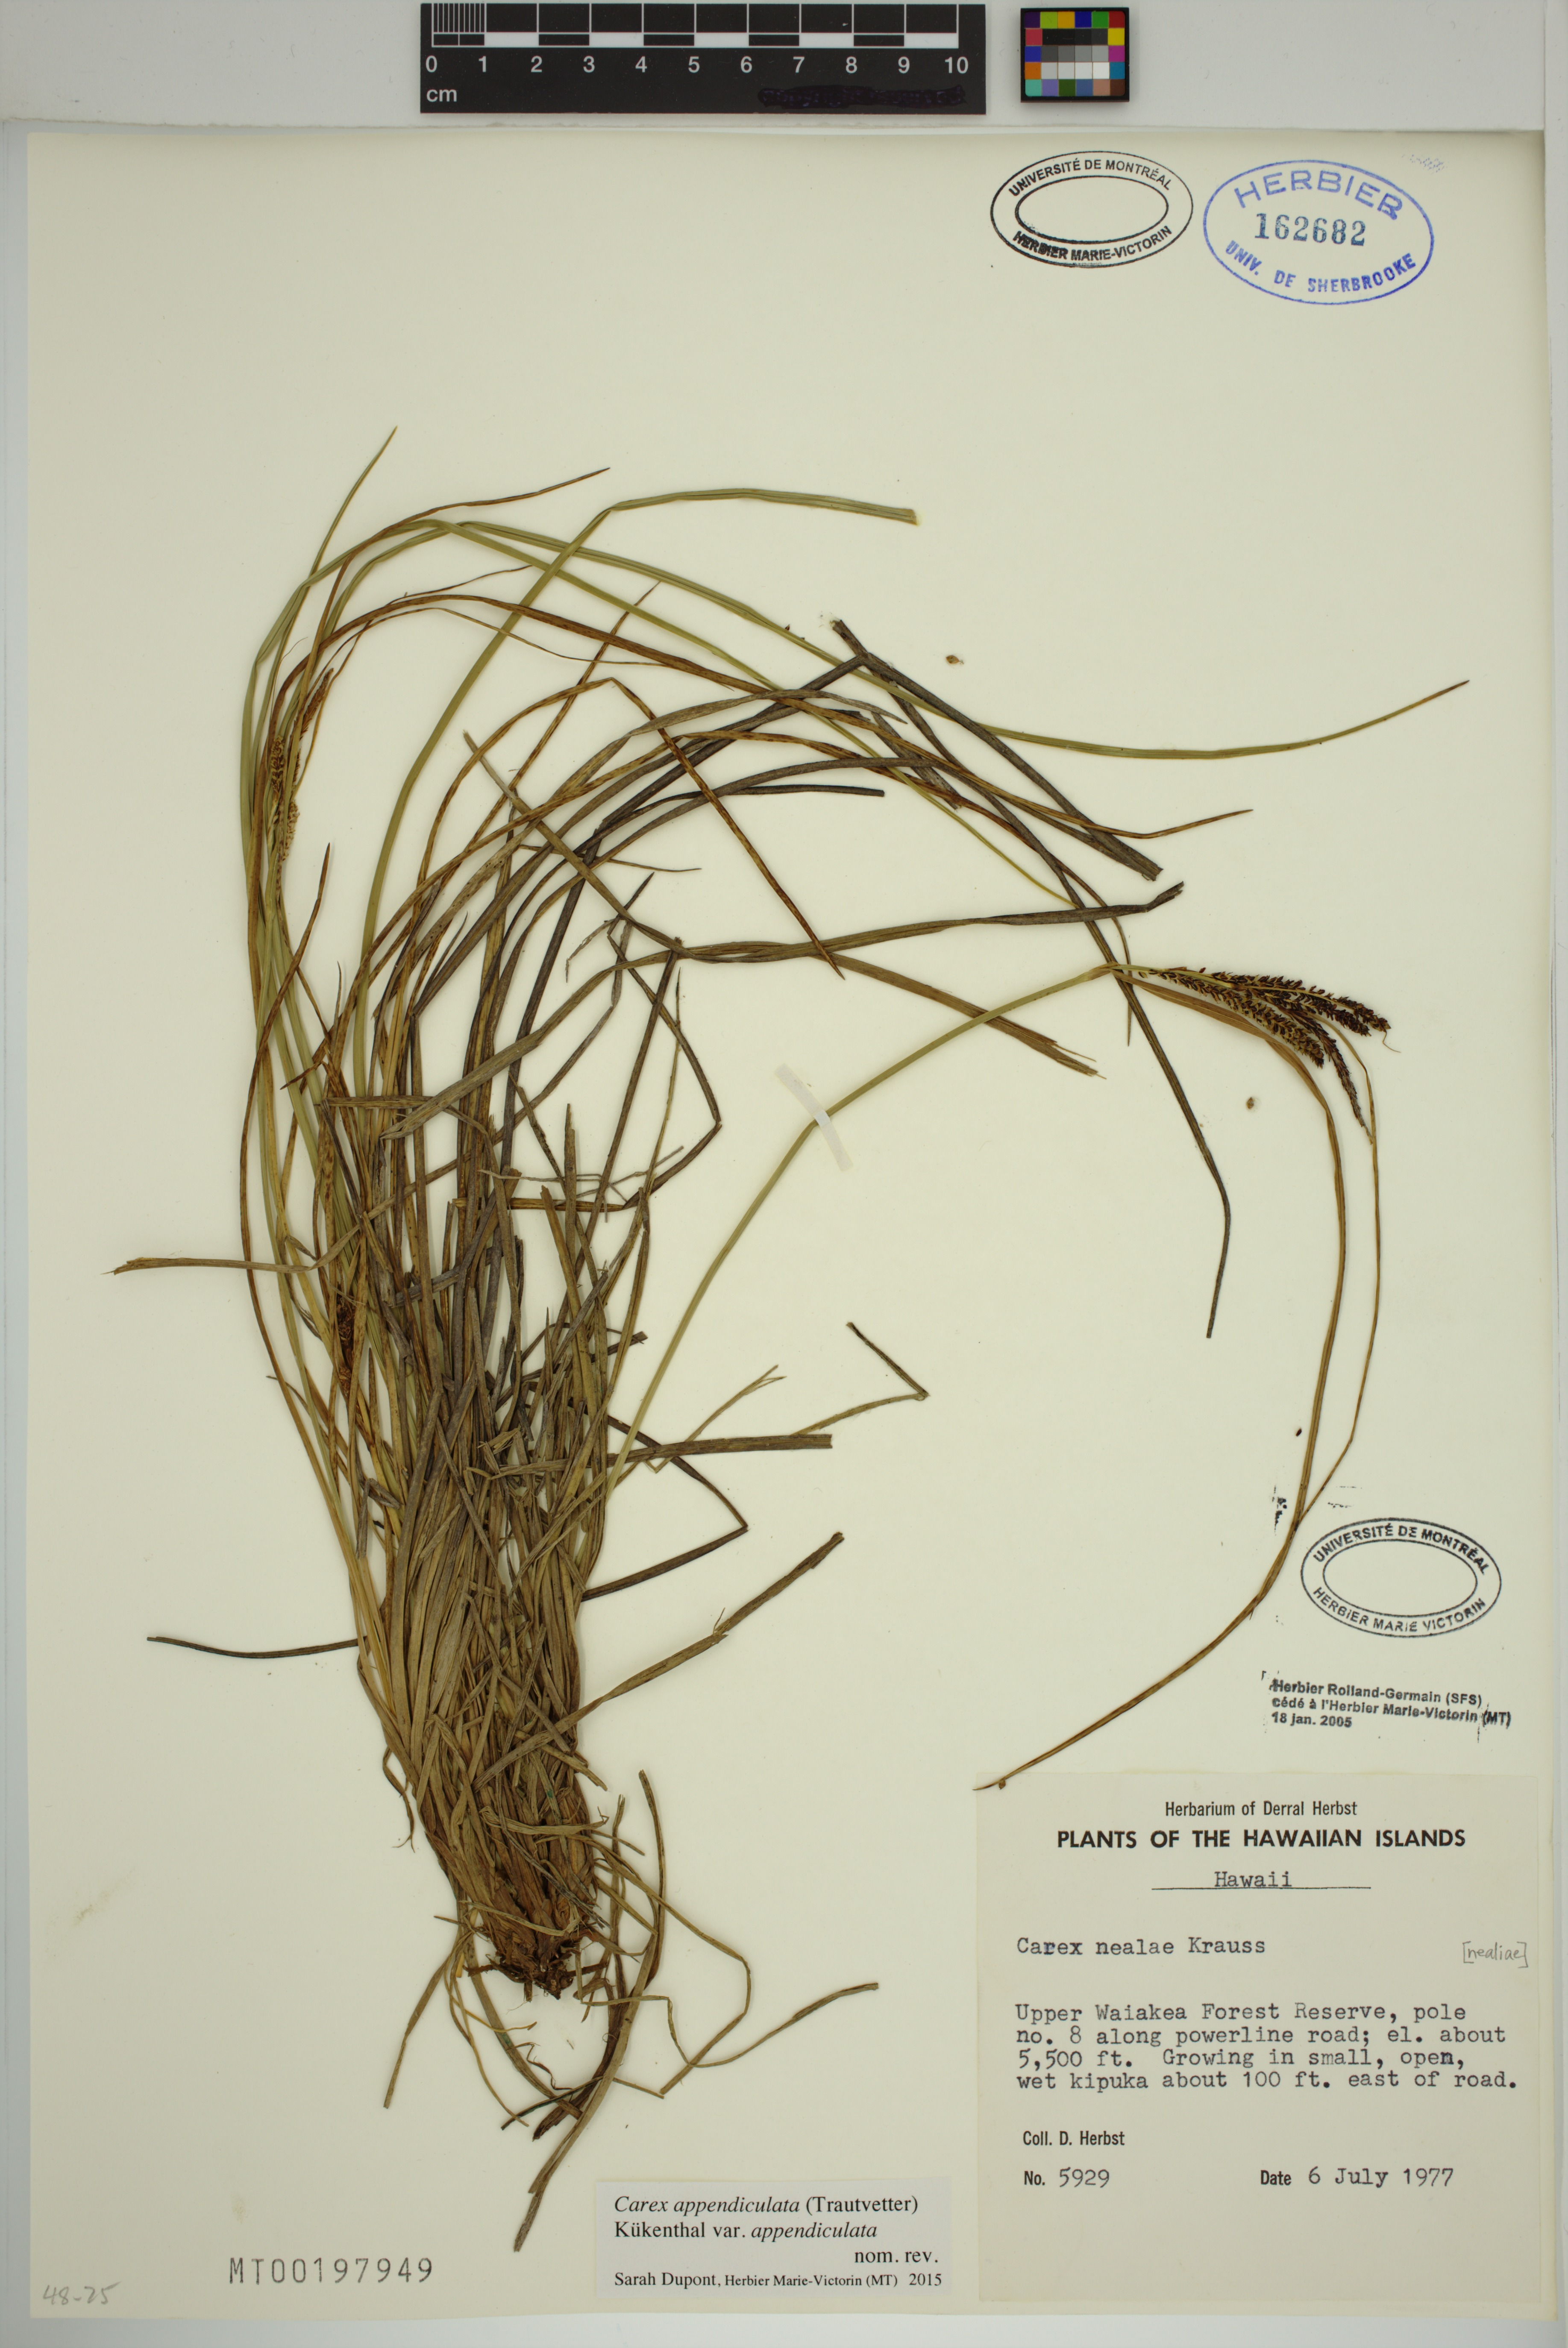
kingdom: Plantae
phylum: Tracheophyta
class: Liliopsida
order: Poales
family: Cyperaceae
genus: Carex
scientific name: Carex appendiculata
